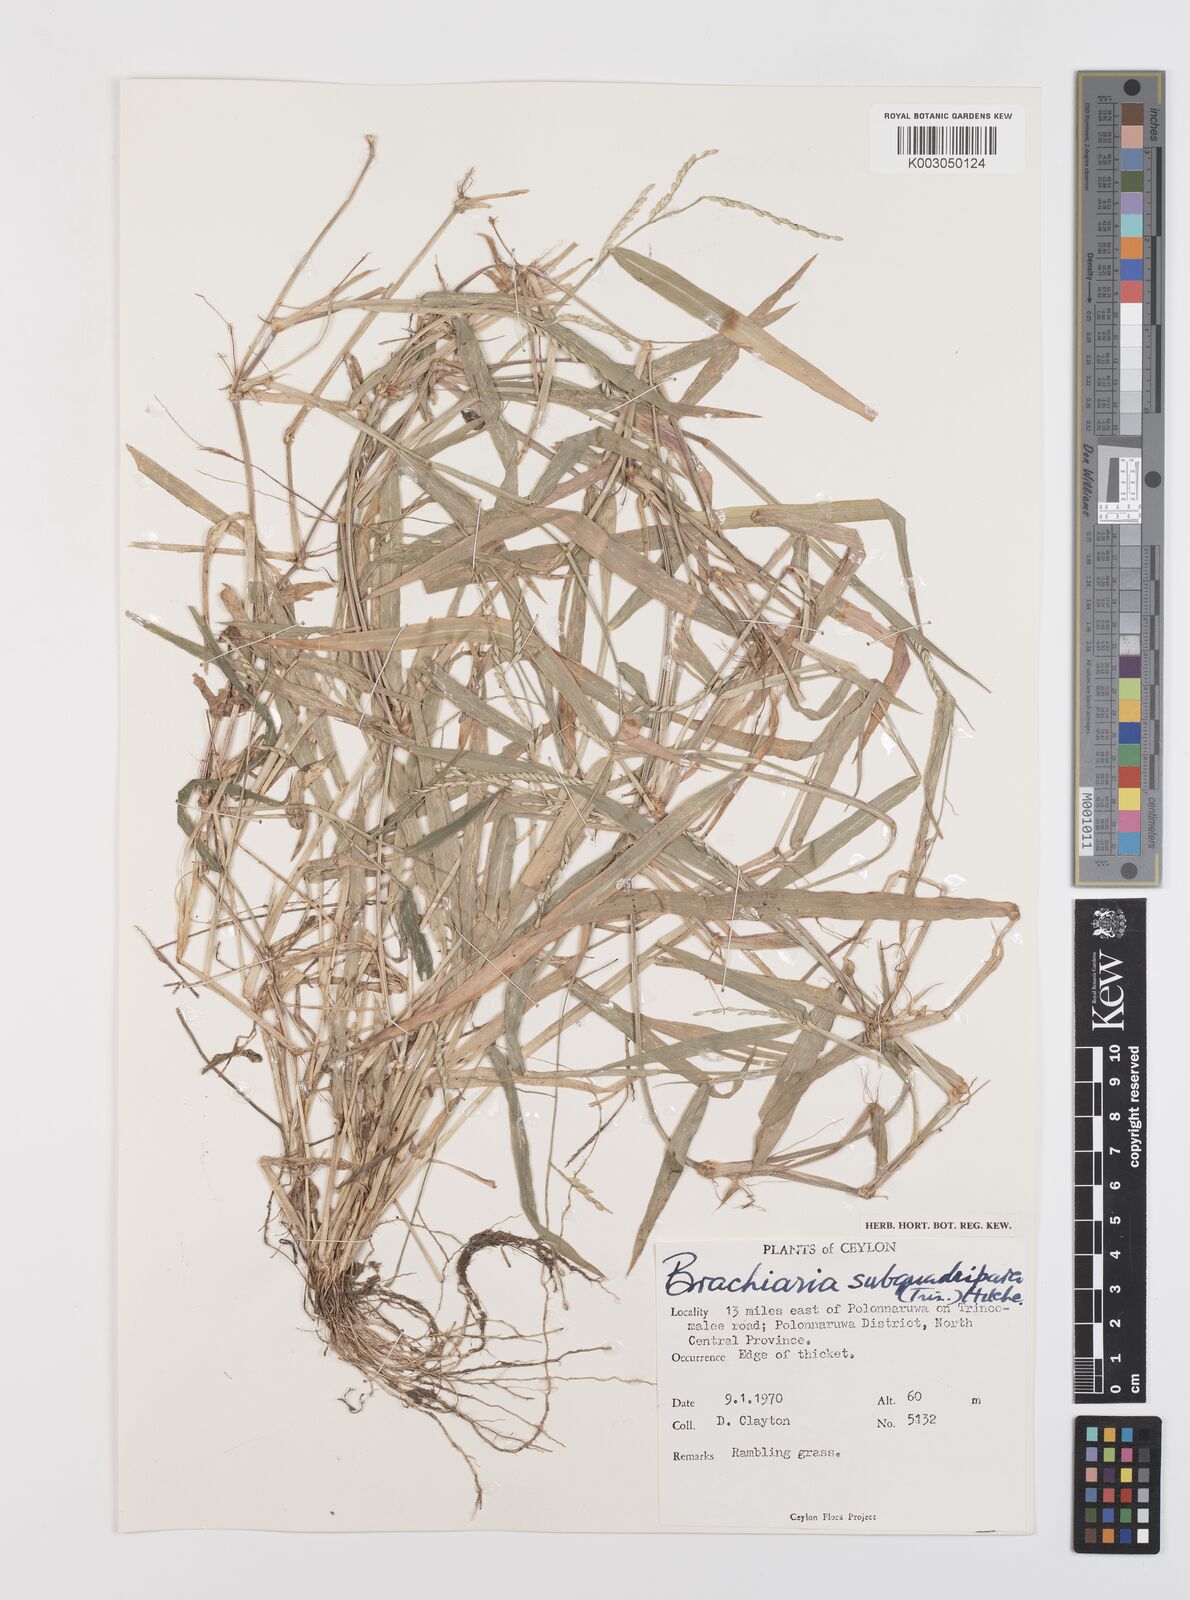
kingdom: Plantae
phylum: Tracheophyta
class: Liliopsida
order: Poales
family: Poaceae
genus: Urochloa
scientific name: Urochloa subquadripara
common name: Armgrass millet
